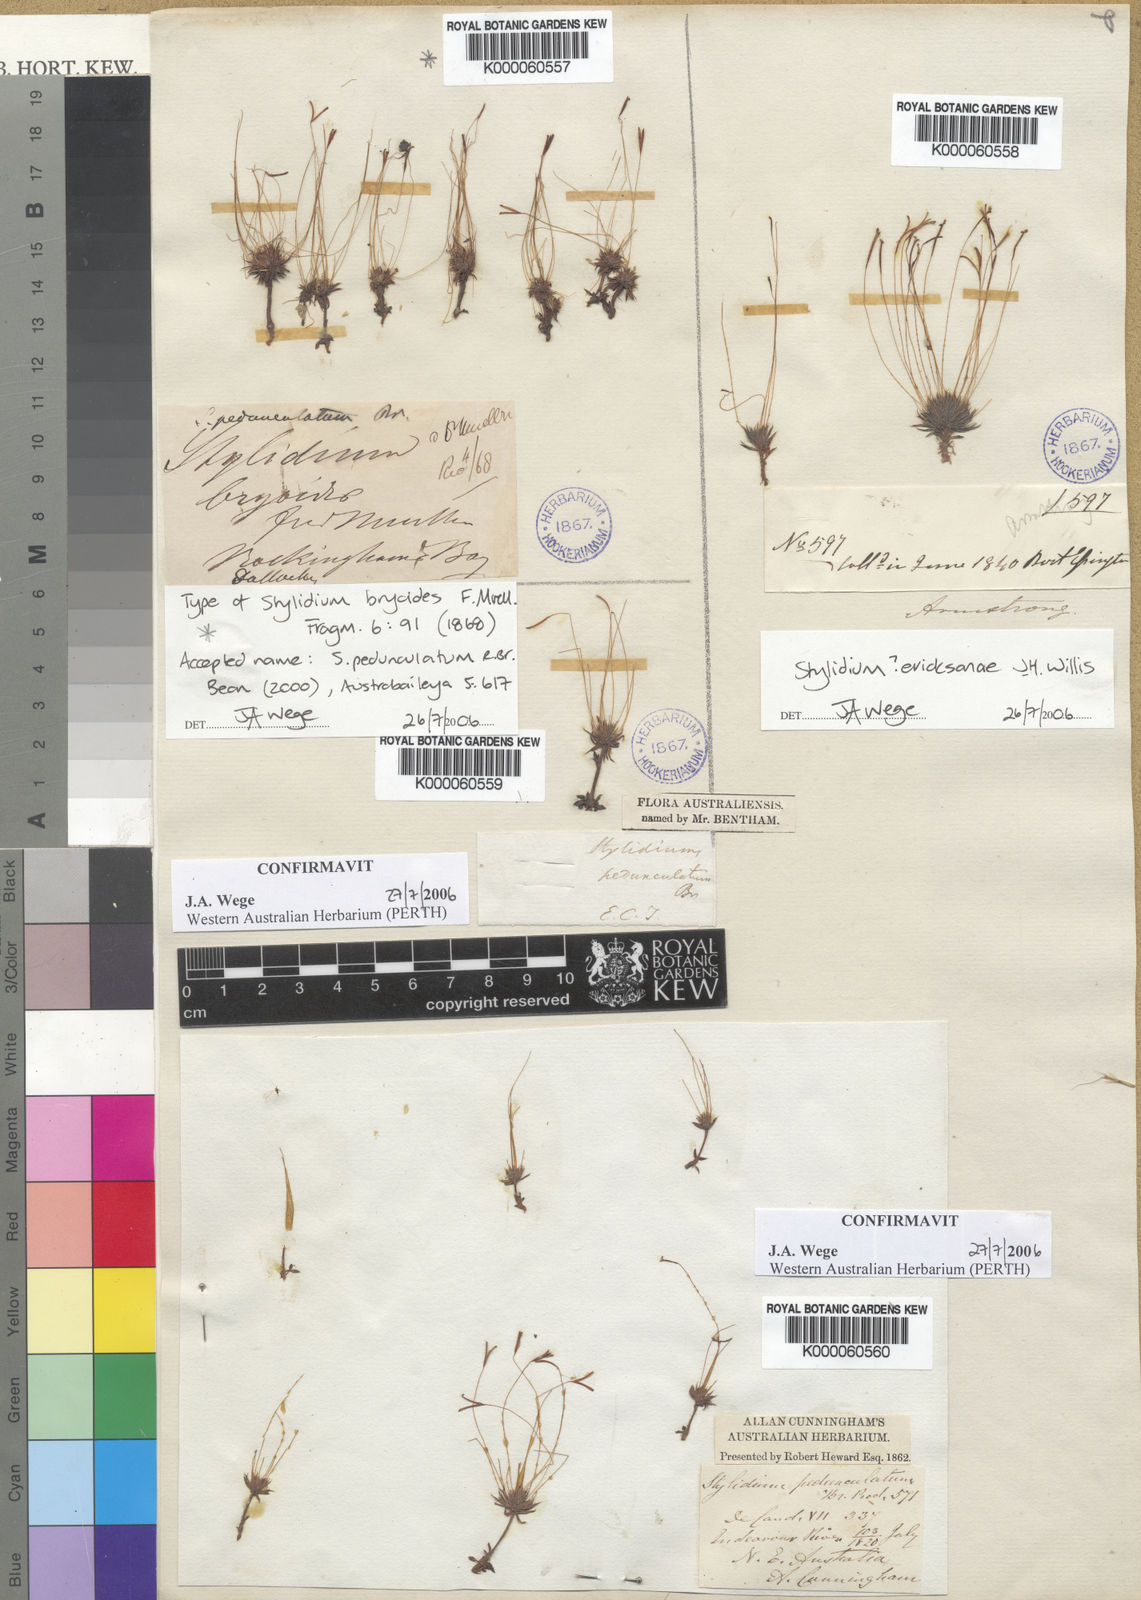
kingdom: Plantae
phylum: Tracheophyta
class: Magnoliopsida
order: Asterales
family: Stylidiaceae
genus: Stylidium
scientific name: Stylidium pedunculatum
